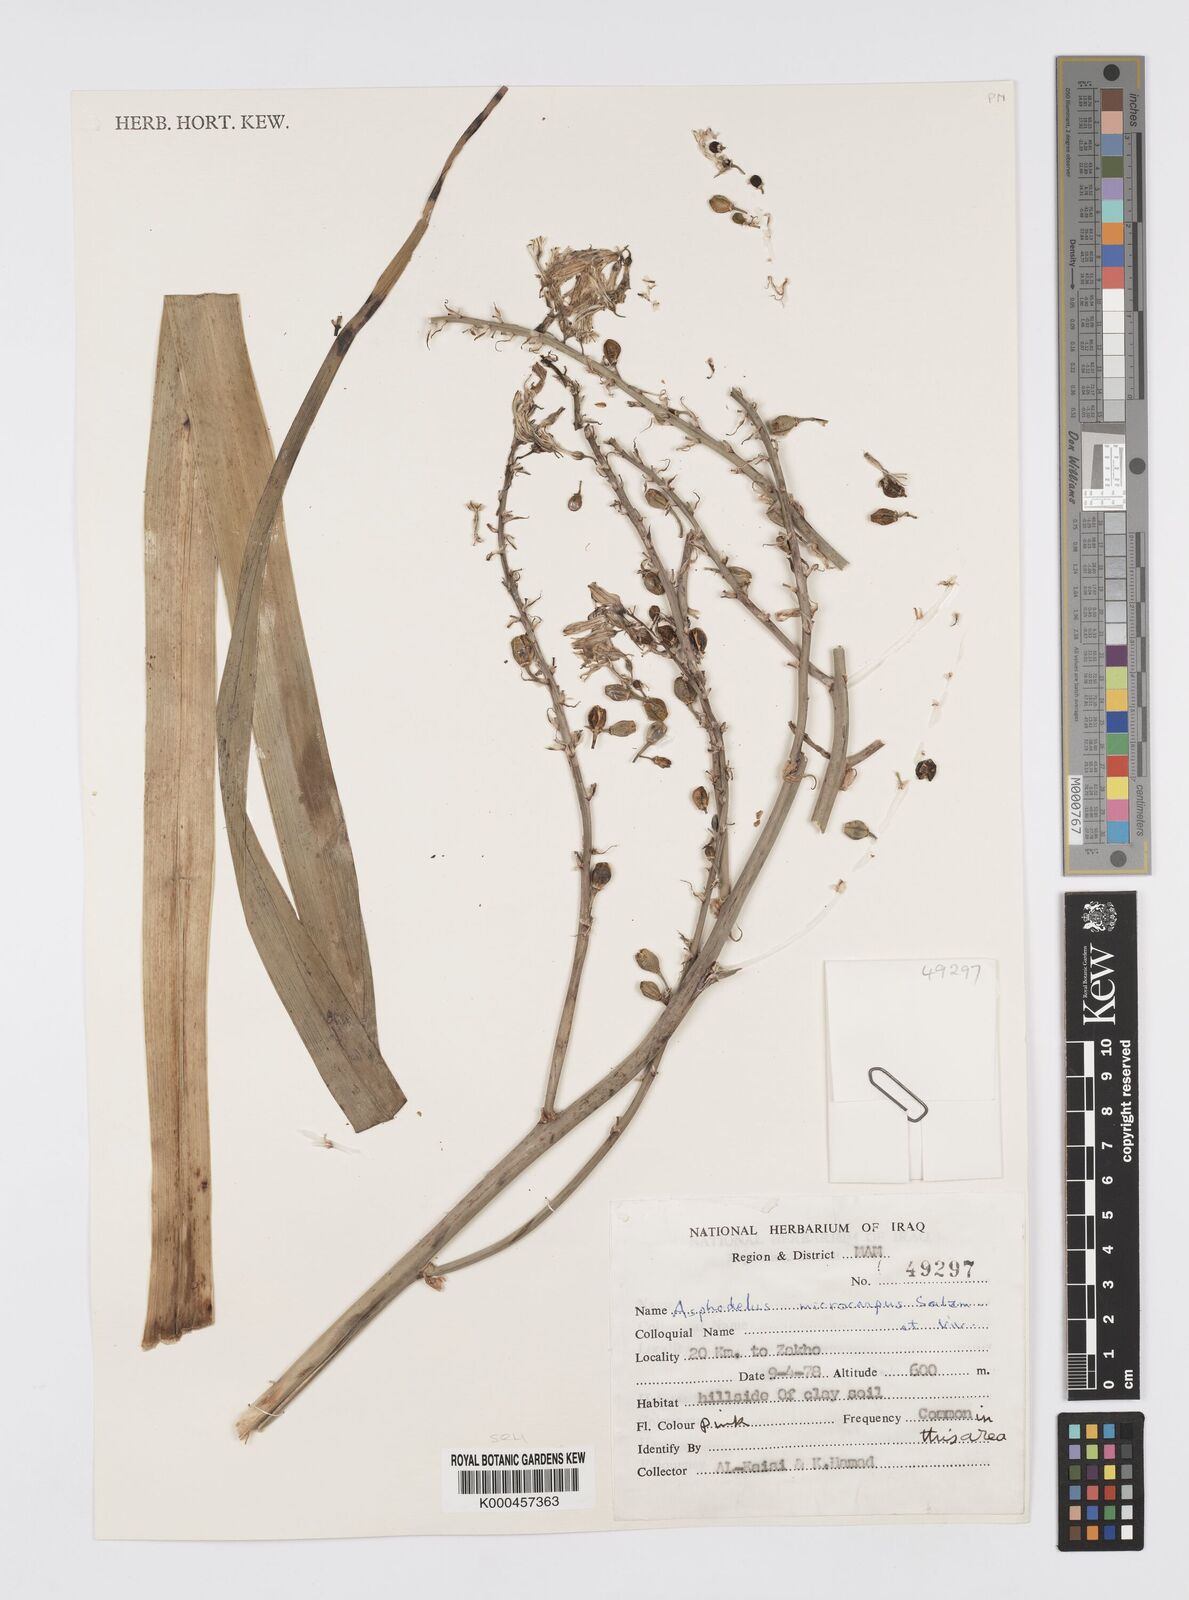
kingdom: Plantae
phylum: Tracheophyta
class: Liliopsida
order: Asparagales
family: Asphodelaceae
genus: Asphodelus
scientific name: Asphodelus aestivus
